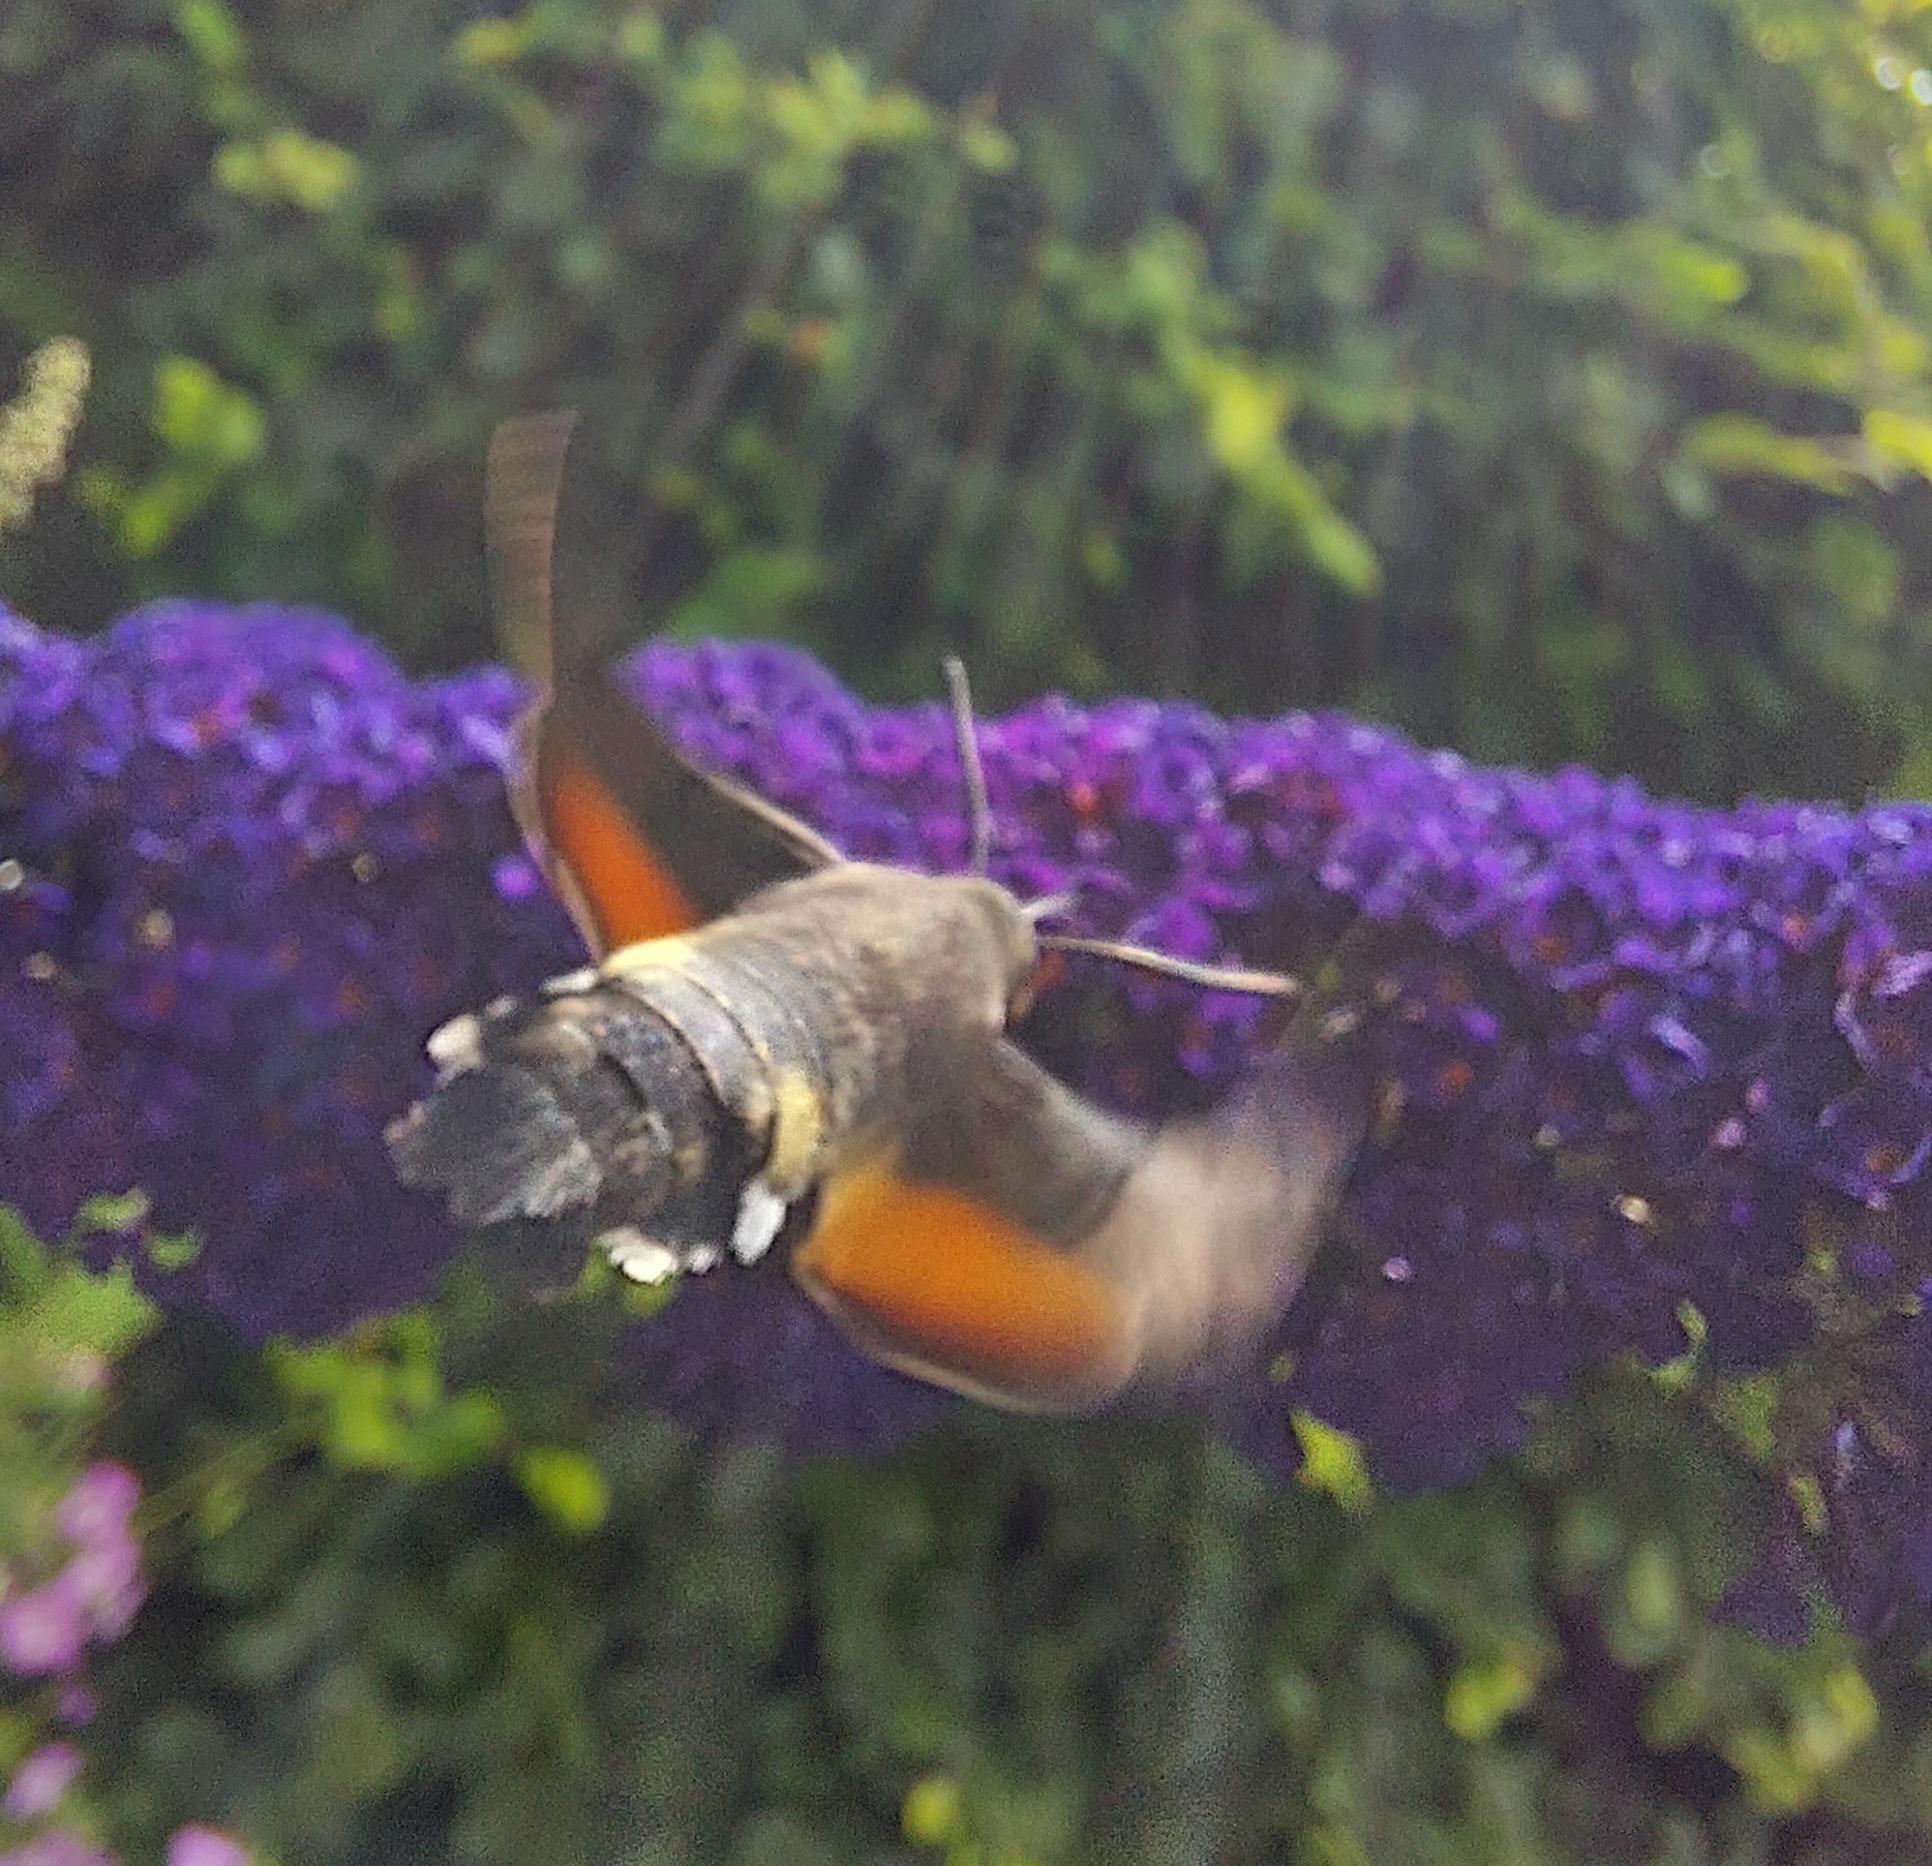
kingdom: Animalia
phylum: Arthropoda
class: Insecta
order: Lepidoptera
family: Sphingidae
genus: Macroglossum
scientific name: Macroglossum stellatarum
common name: Duehale
